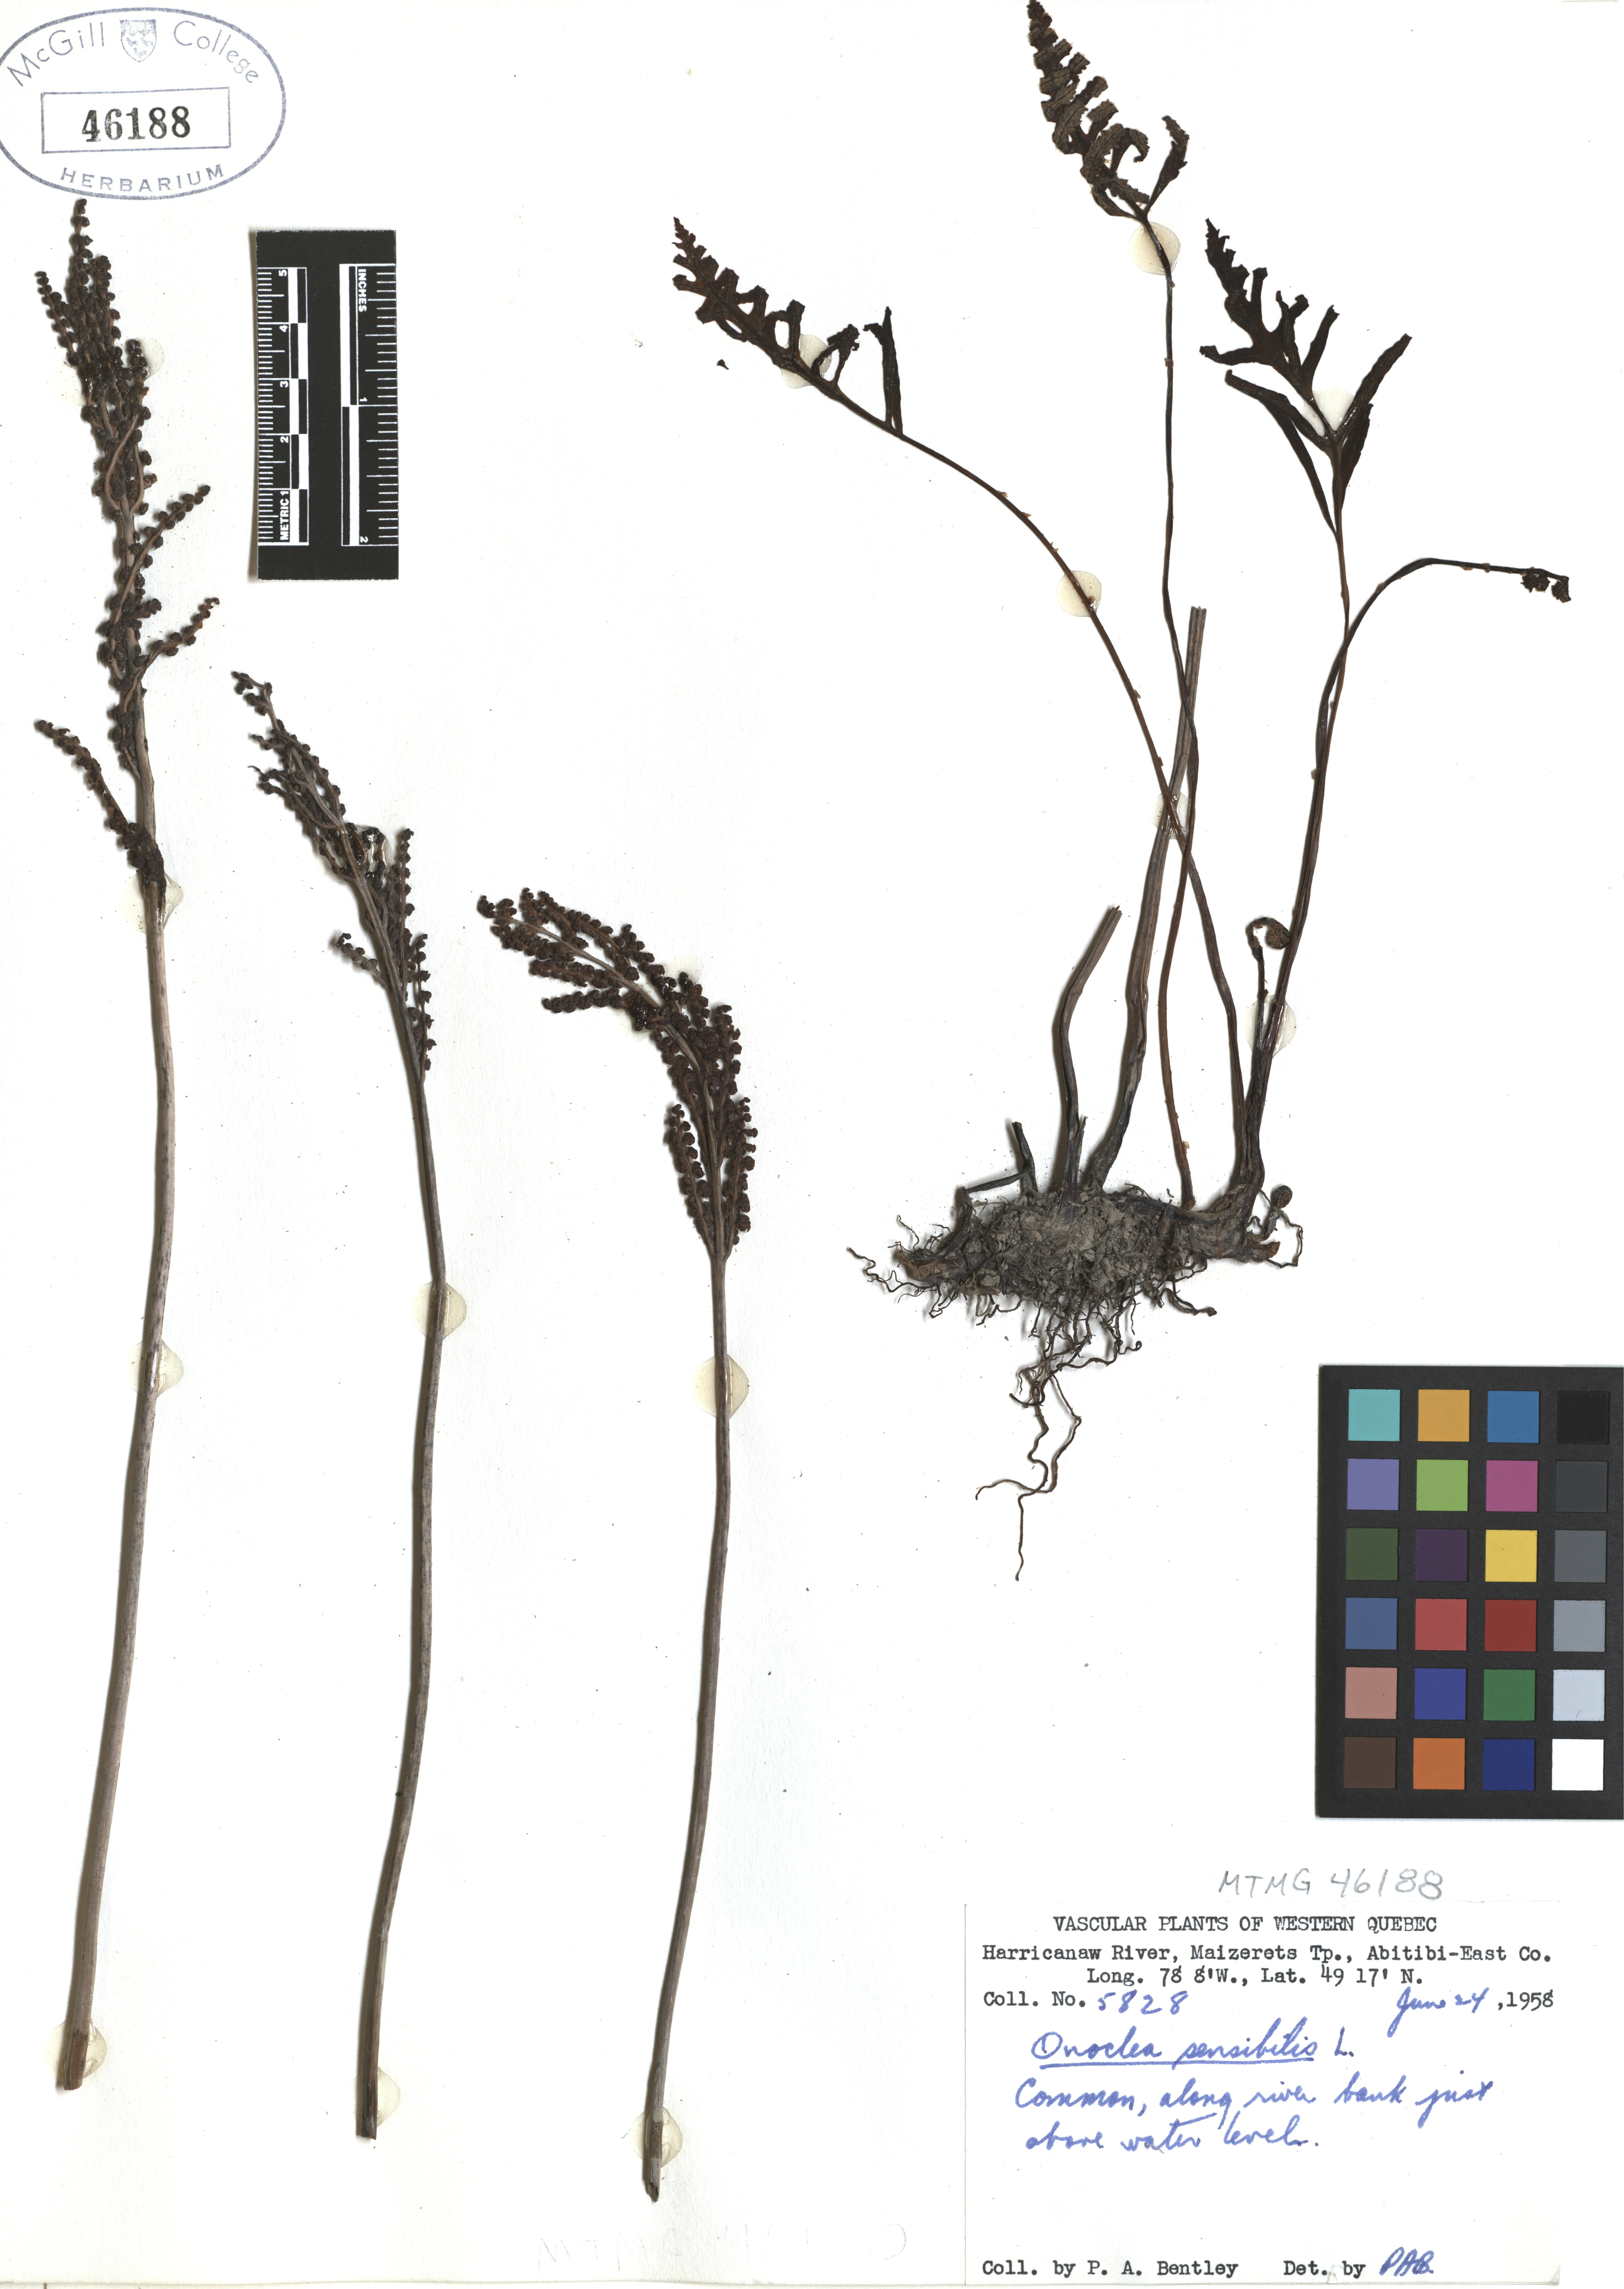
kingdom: Plantae
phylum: Tracheophyta
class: Polypodiopsida
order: Polypodiales
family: Onocleaceae
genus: Onoclea
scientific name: Onoclea sensibilis
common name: Sensitive fern
